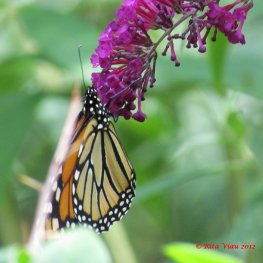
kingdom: Animalia
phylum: Arthropoda
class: Insecta
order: Lepidoptera
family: Nymphalidae
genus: Danaus
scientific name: Danaus plexippus
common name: Monarch
